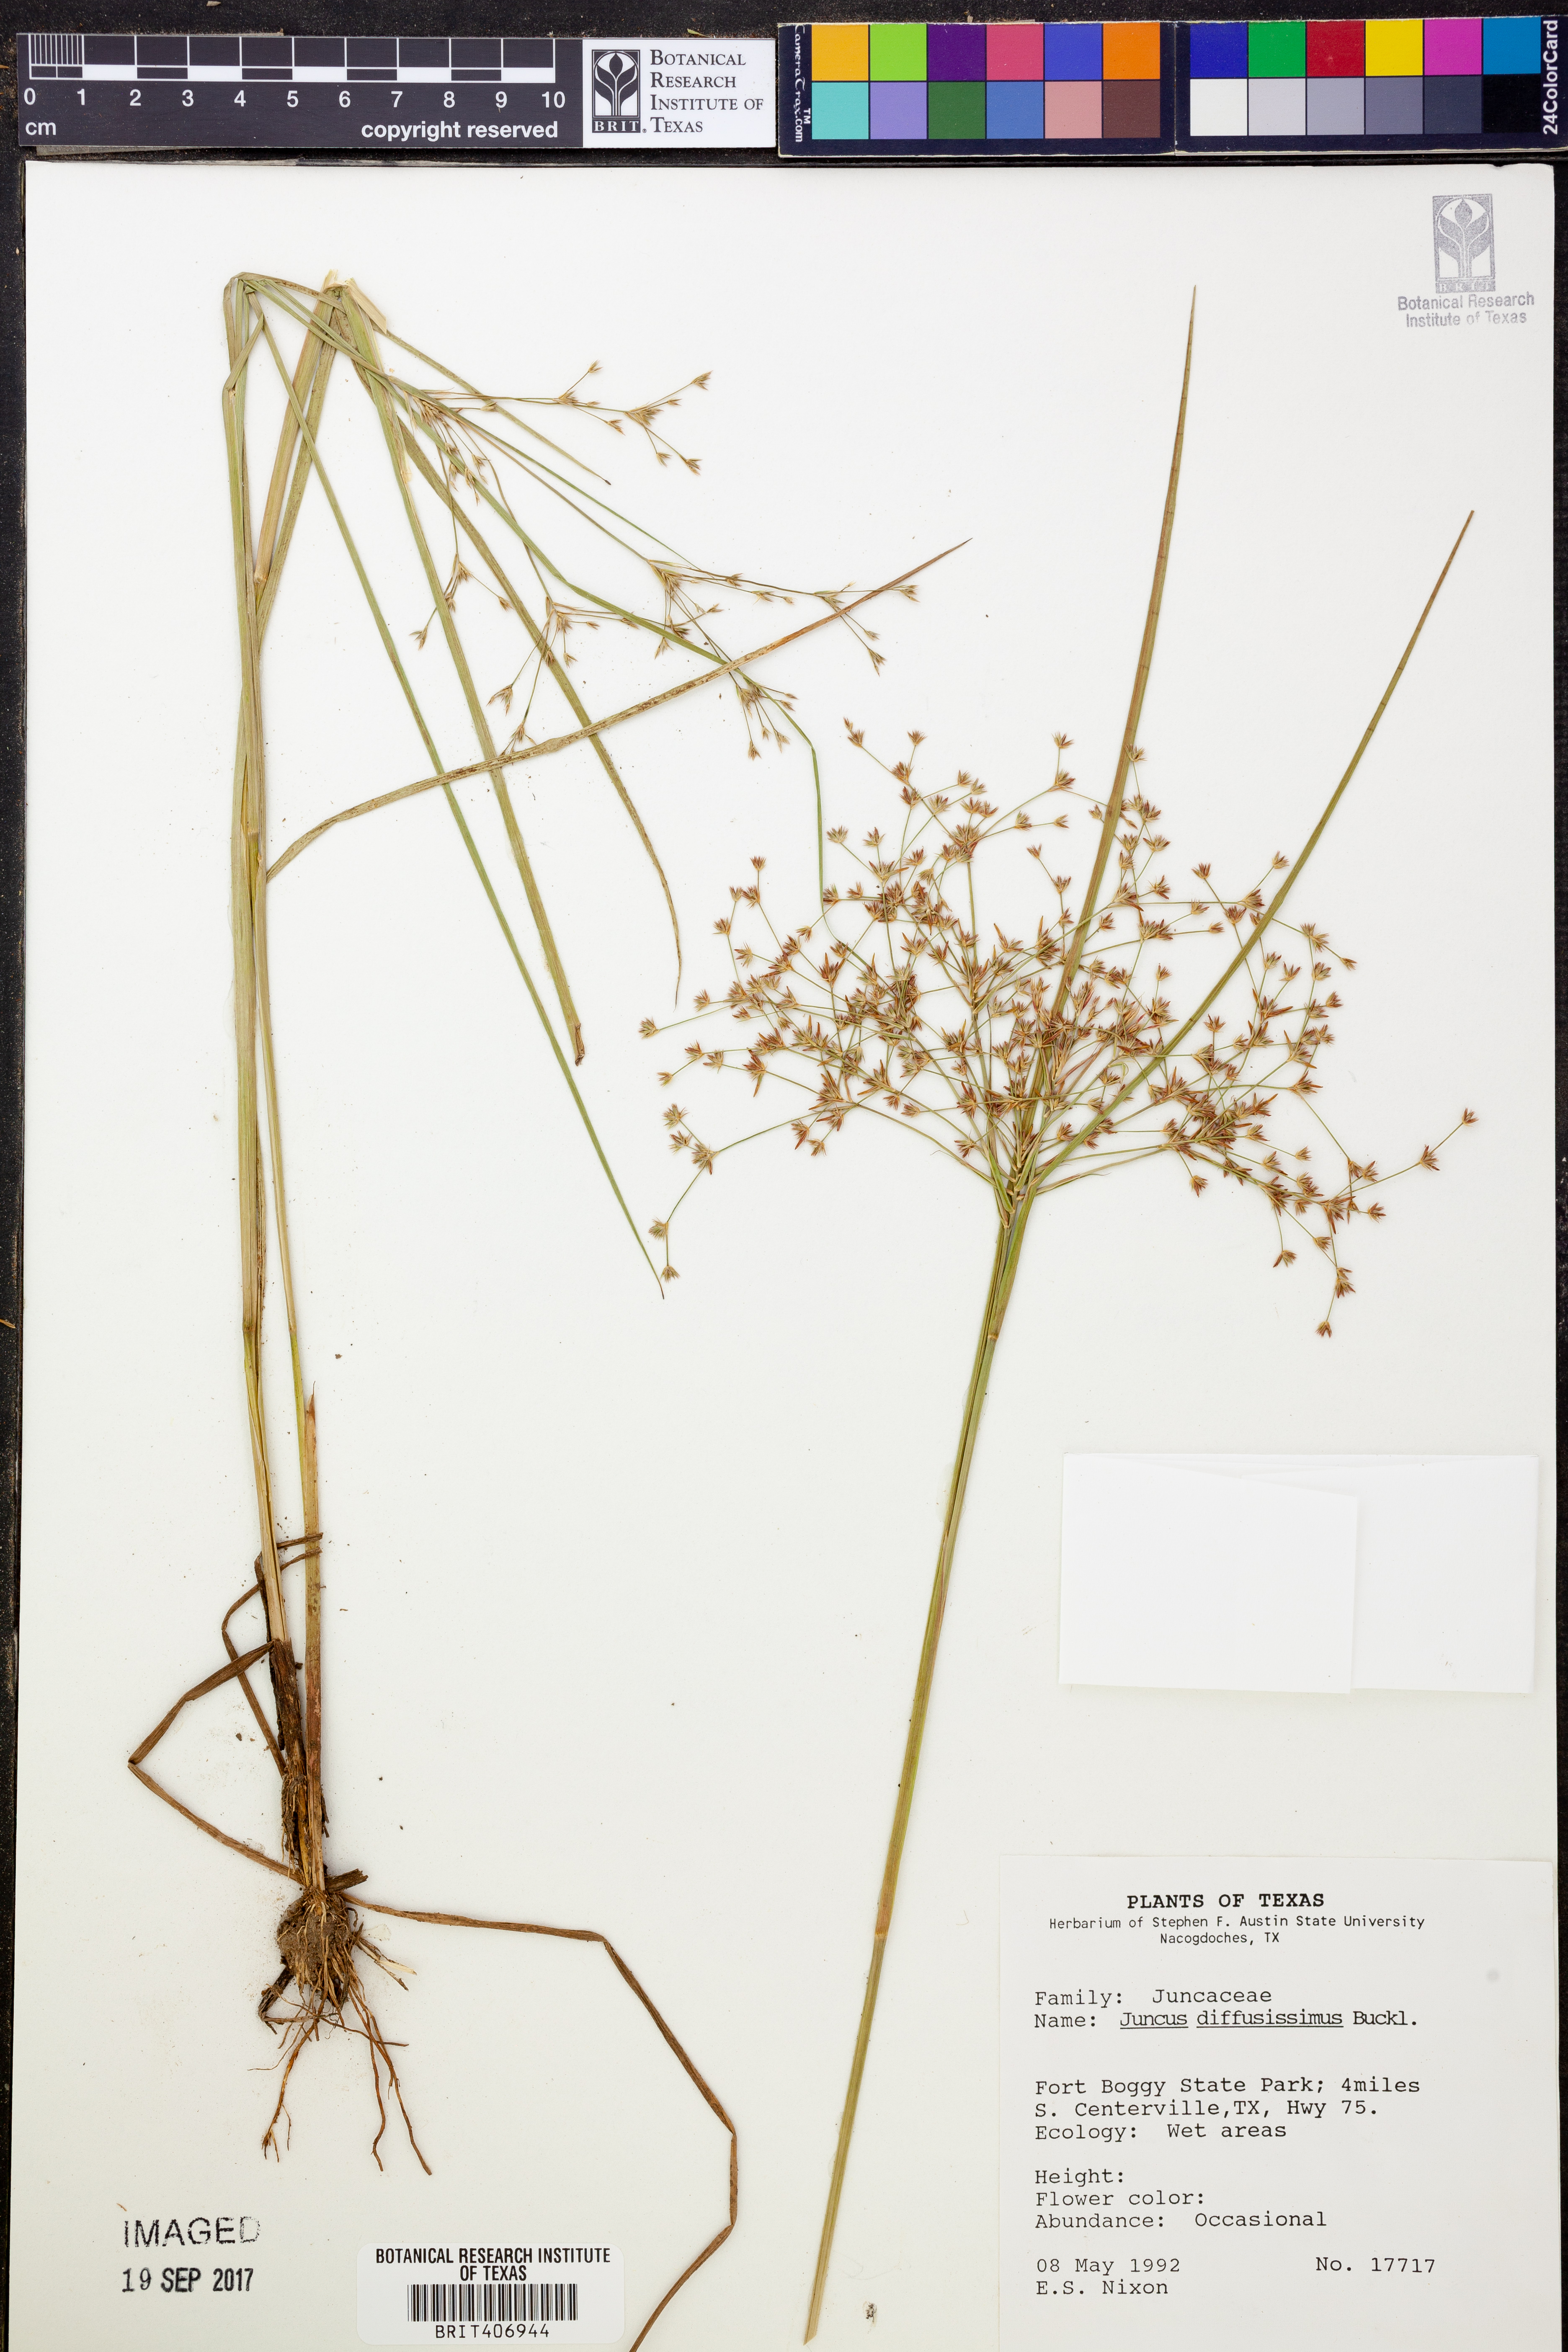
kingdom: Plantae
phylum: Tracheophyta
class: Liliopsida
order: Poales
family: Juncaceae
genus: Juncus
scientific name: Juncus diffusissimus
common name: Slimpod rush
